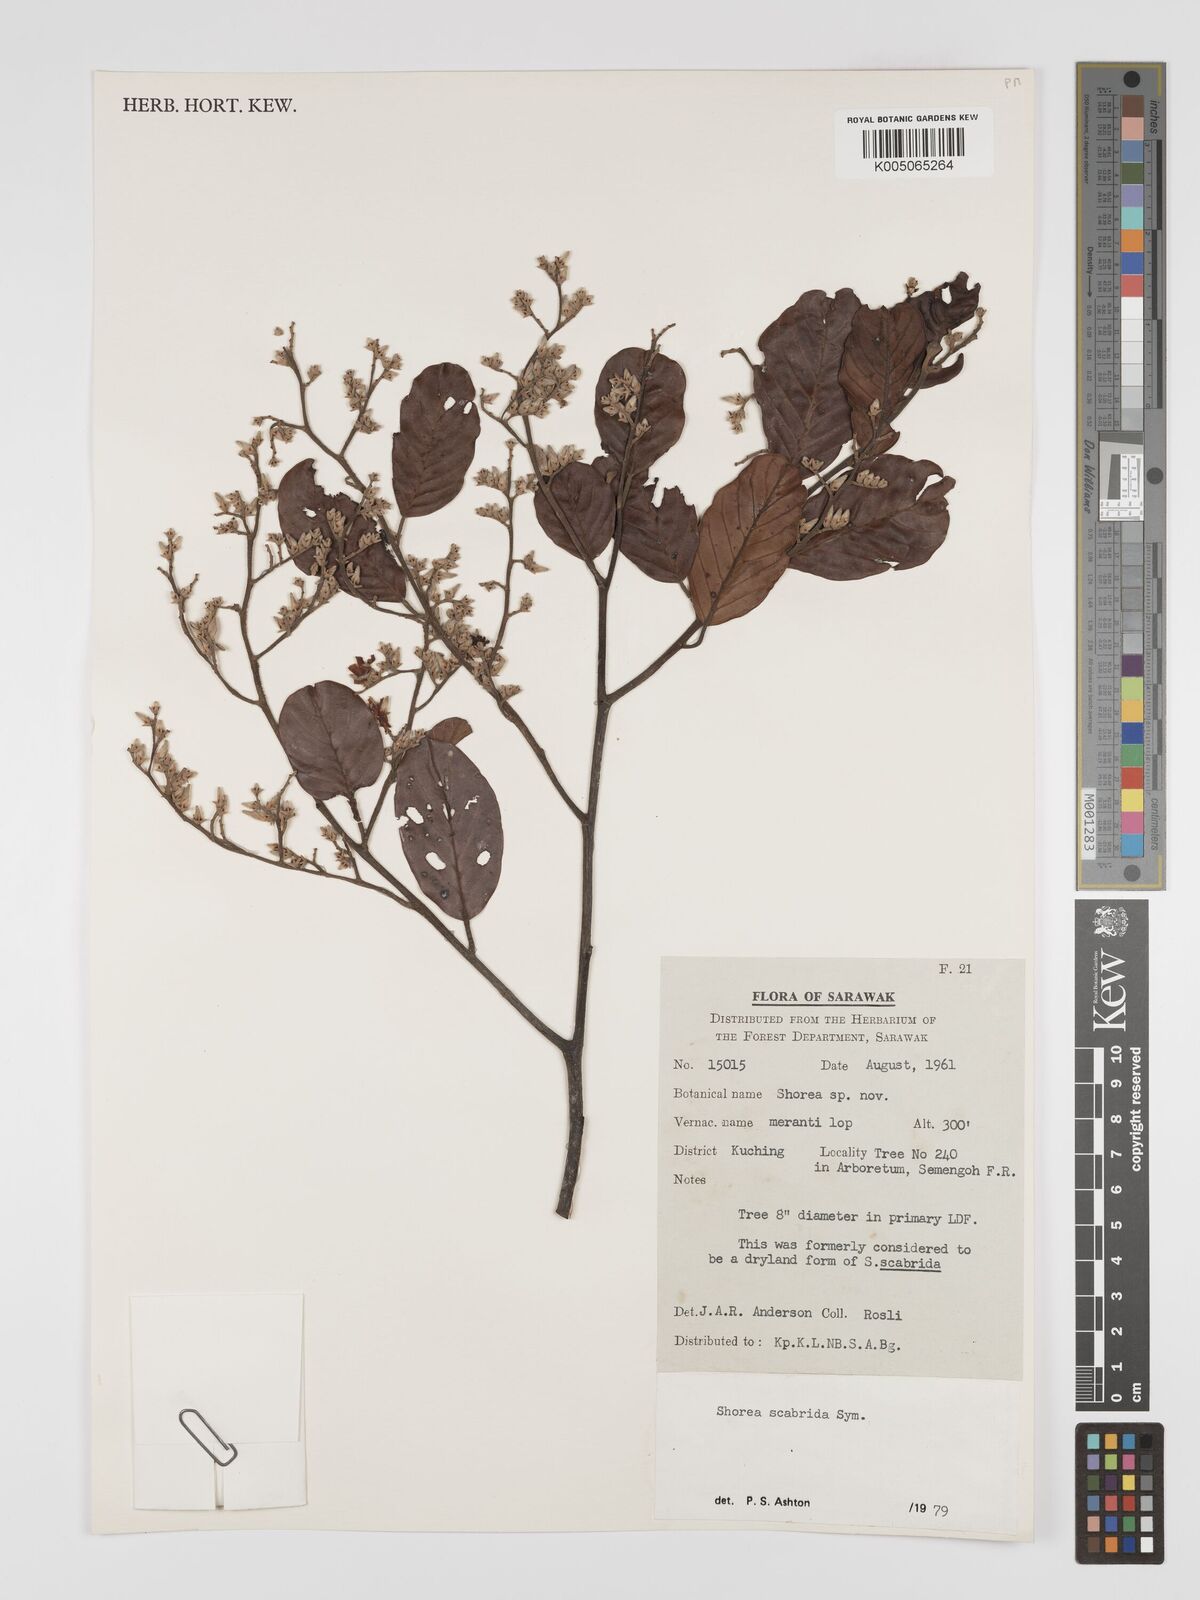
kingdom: Plantae
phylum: Tracheophyta
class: Magnoliopsida
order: Malvales
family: Dipterocarpaceae
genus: Shorea
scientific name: Shorea scabrida
